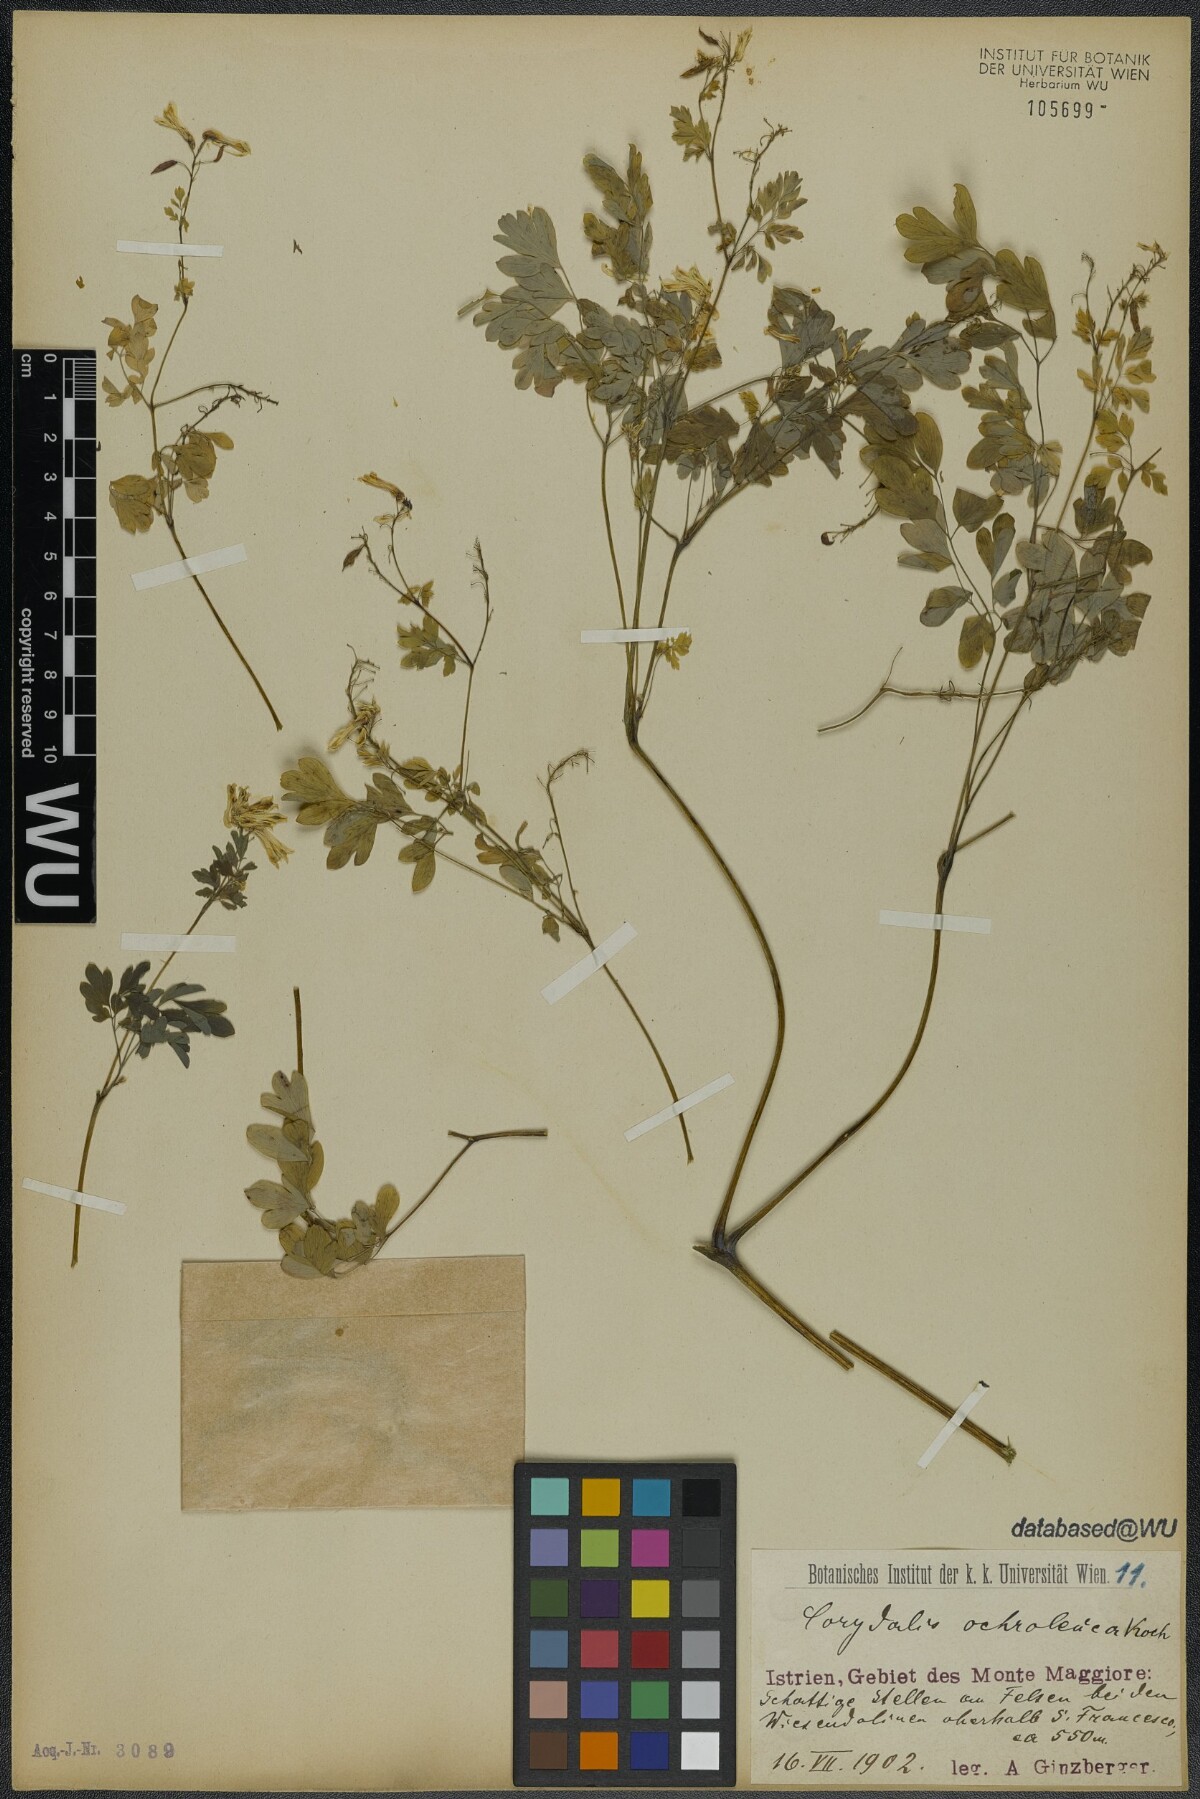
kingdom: Plantae
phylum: Tracheophyta
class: Magnoliopsida
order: Ranunculales
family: Papaveraceae
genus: Pseudofumaria
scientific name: Pseudofumaria alba
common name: Pale corydalis
